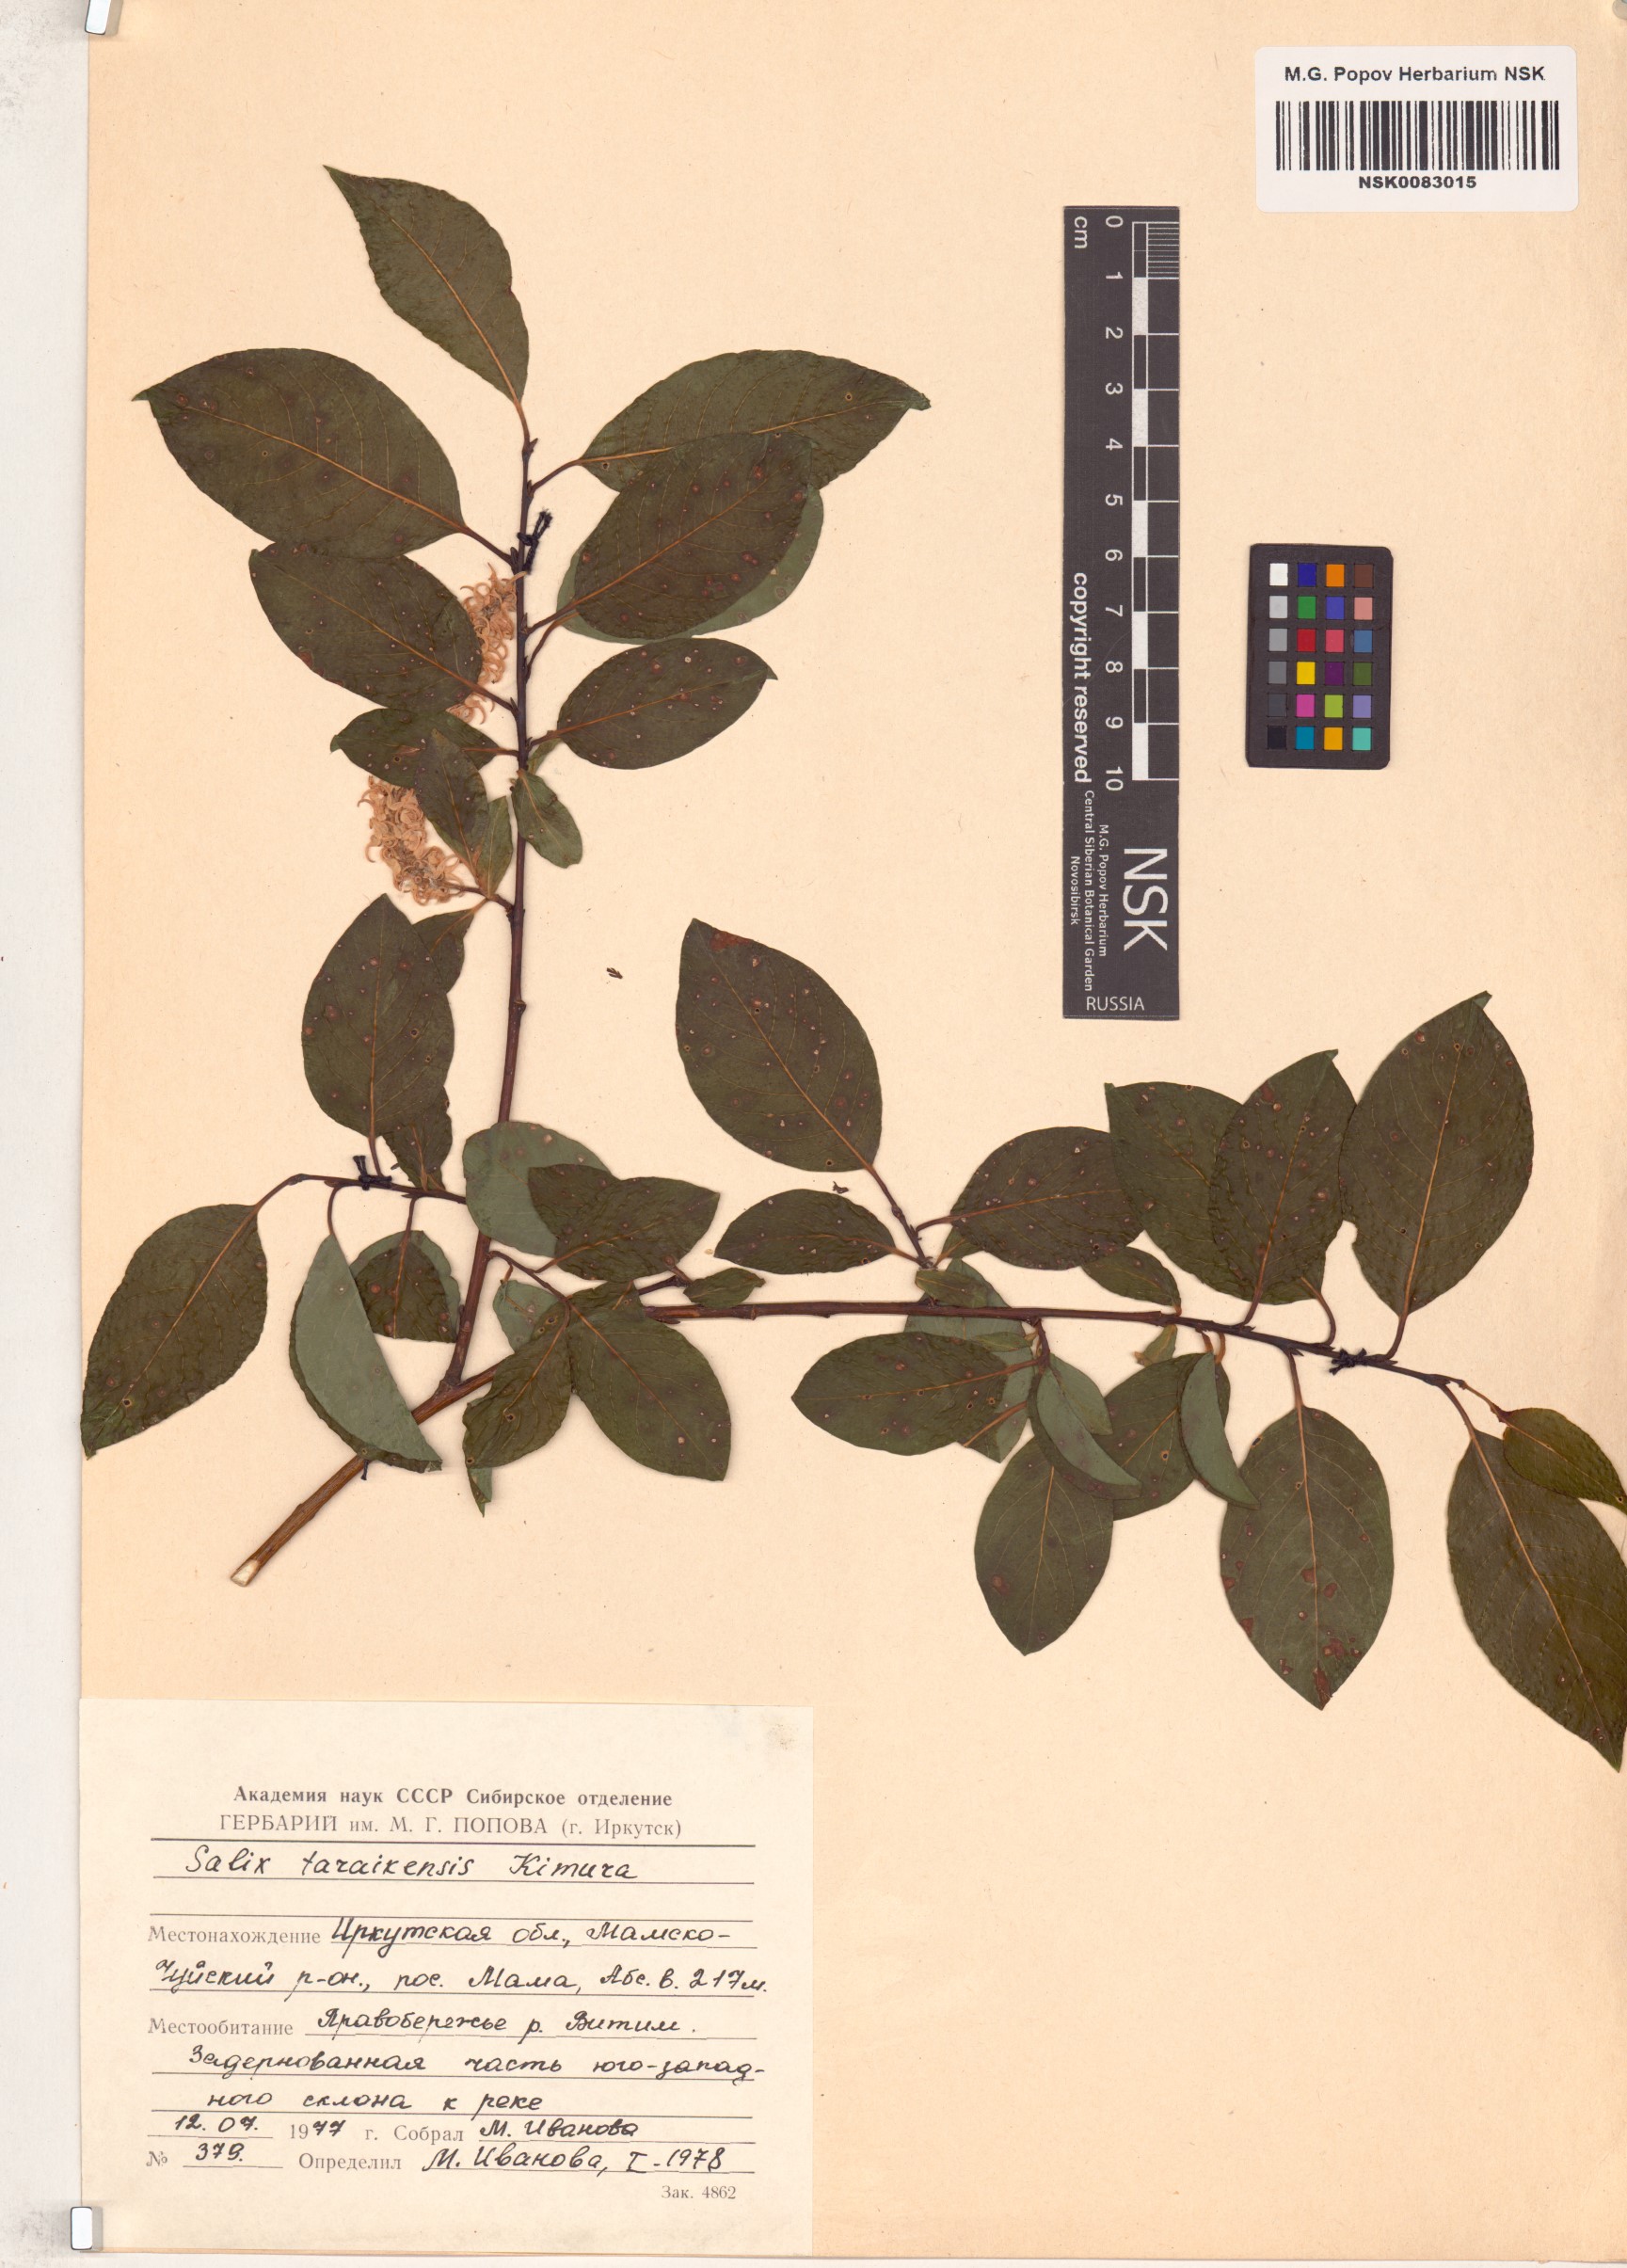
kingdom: Plantae
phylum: Tracheophyta
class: Magnoliopsida
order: Malpighiales
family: Salicaceae
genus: Salix
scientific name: Salix taraikensis
